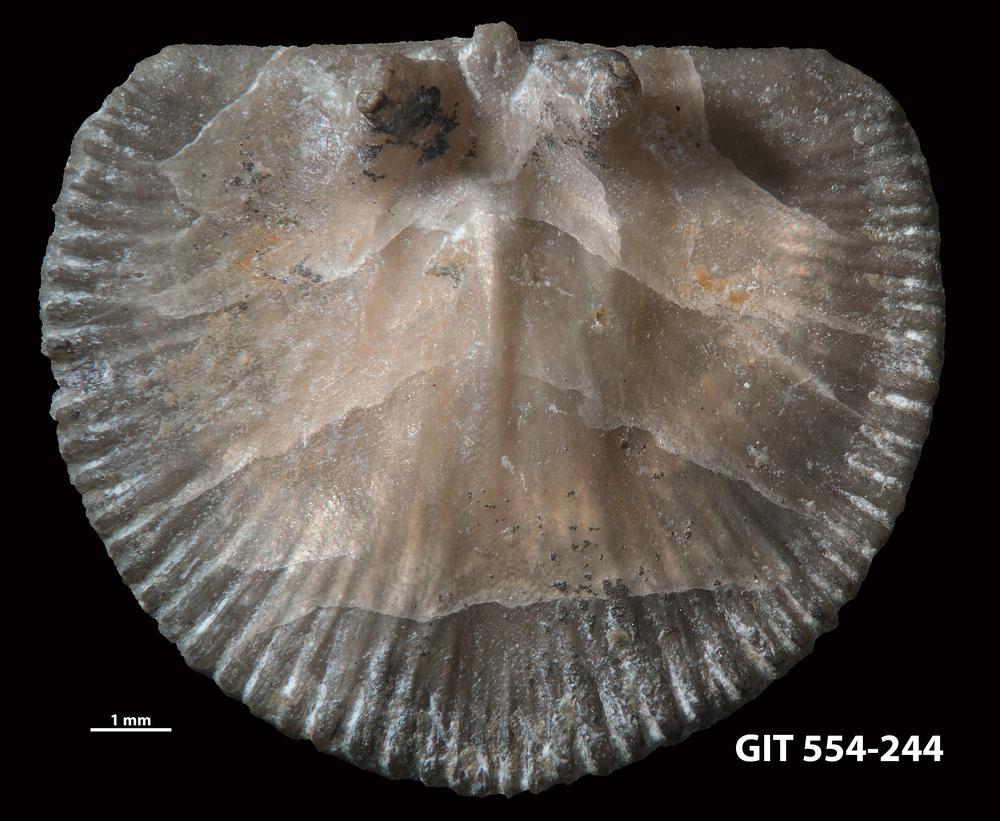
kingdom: Animalia
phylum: Brachiopoda
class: Rhynchonellata
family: Dalmanellidae
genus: Resserella
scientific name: Resserella Orthis canalis
